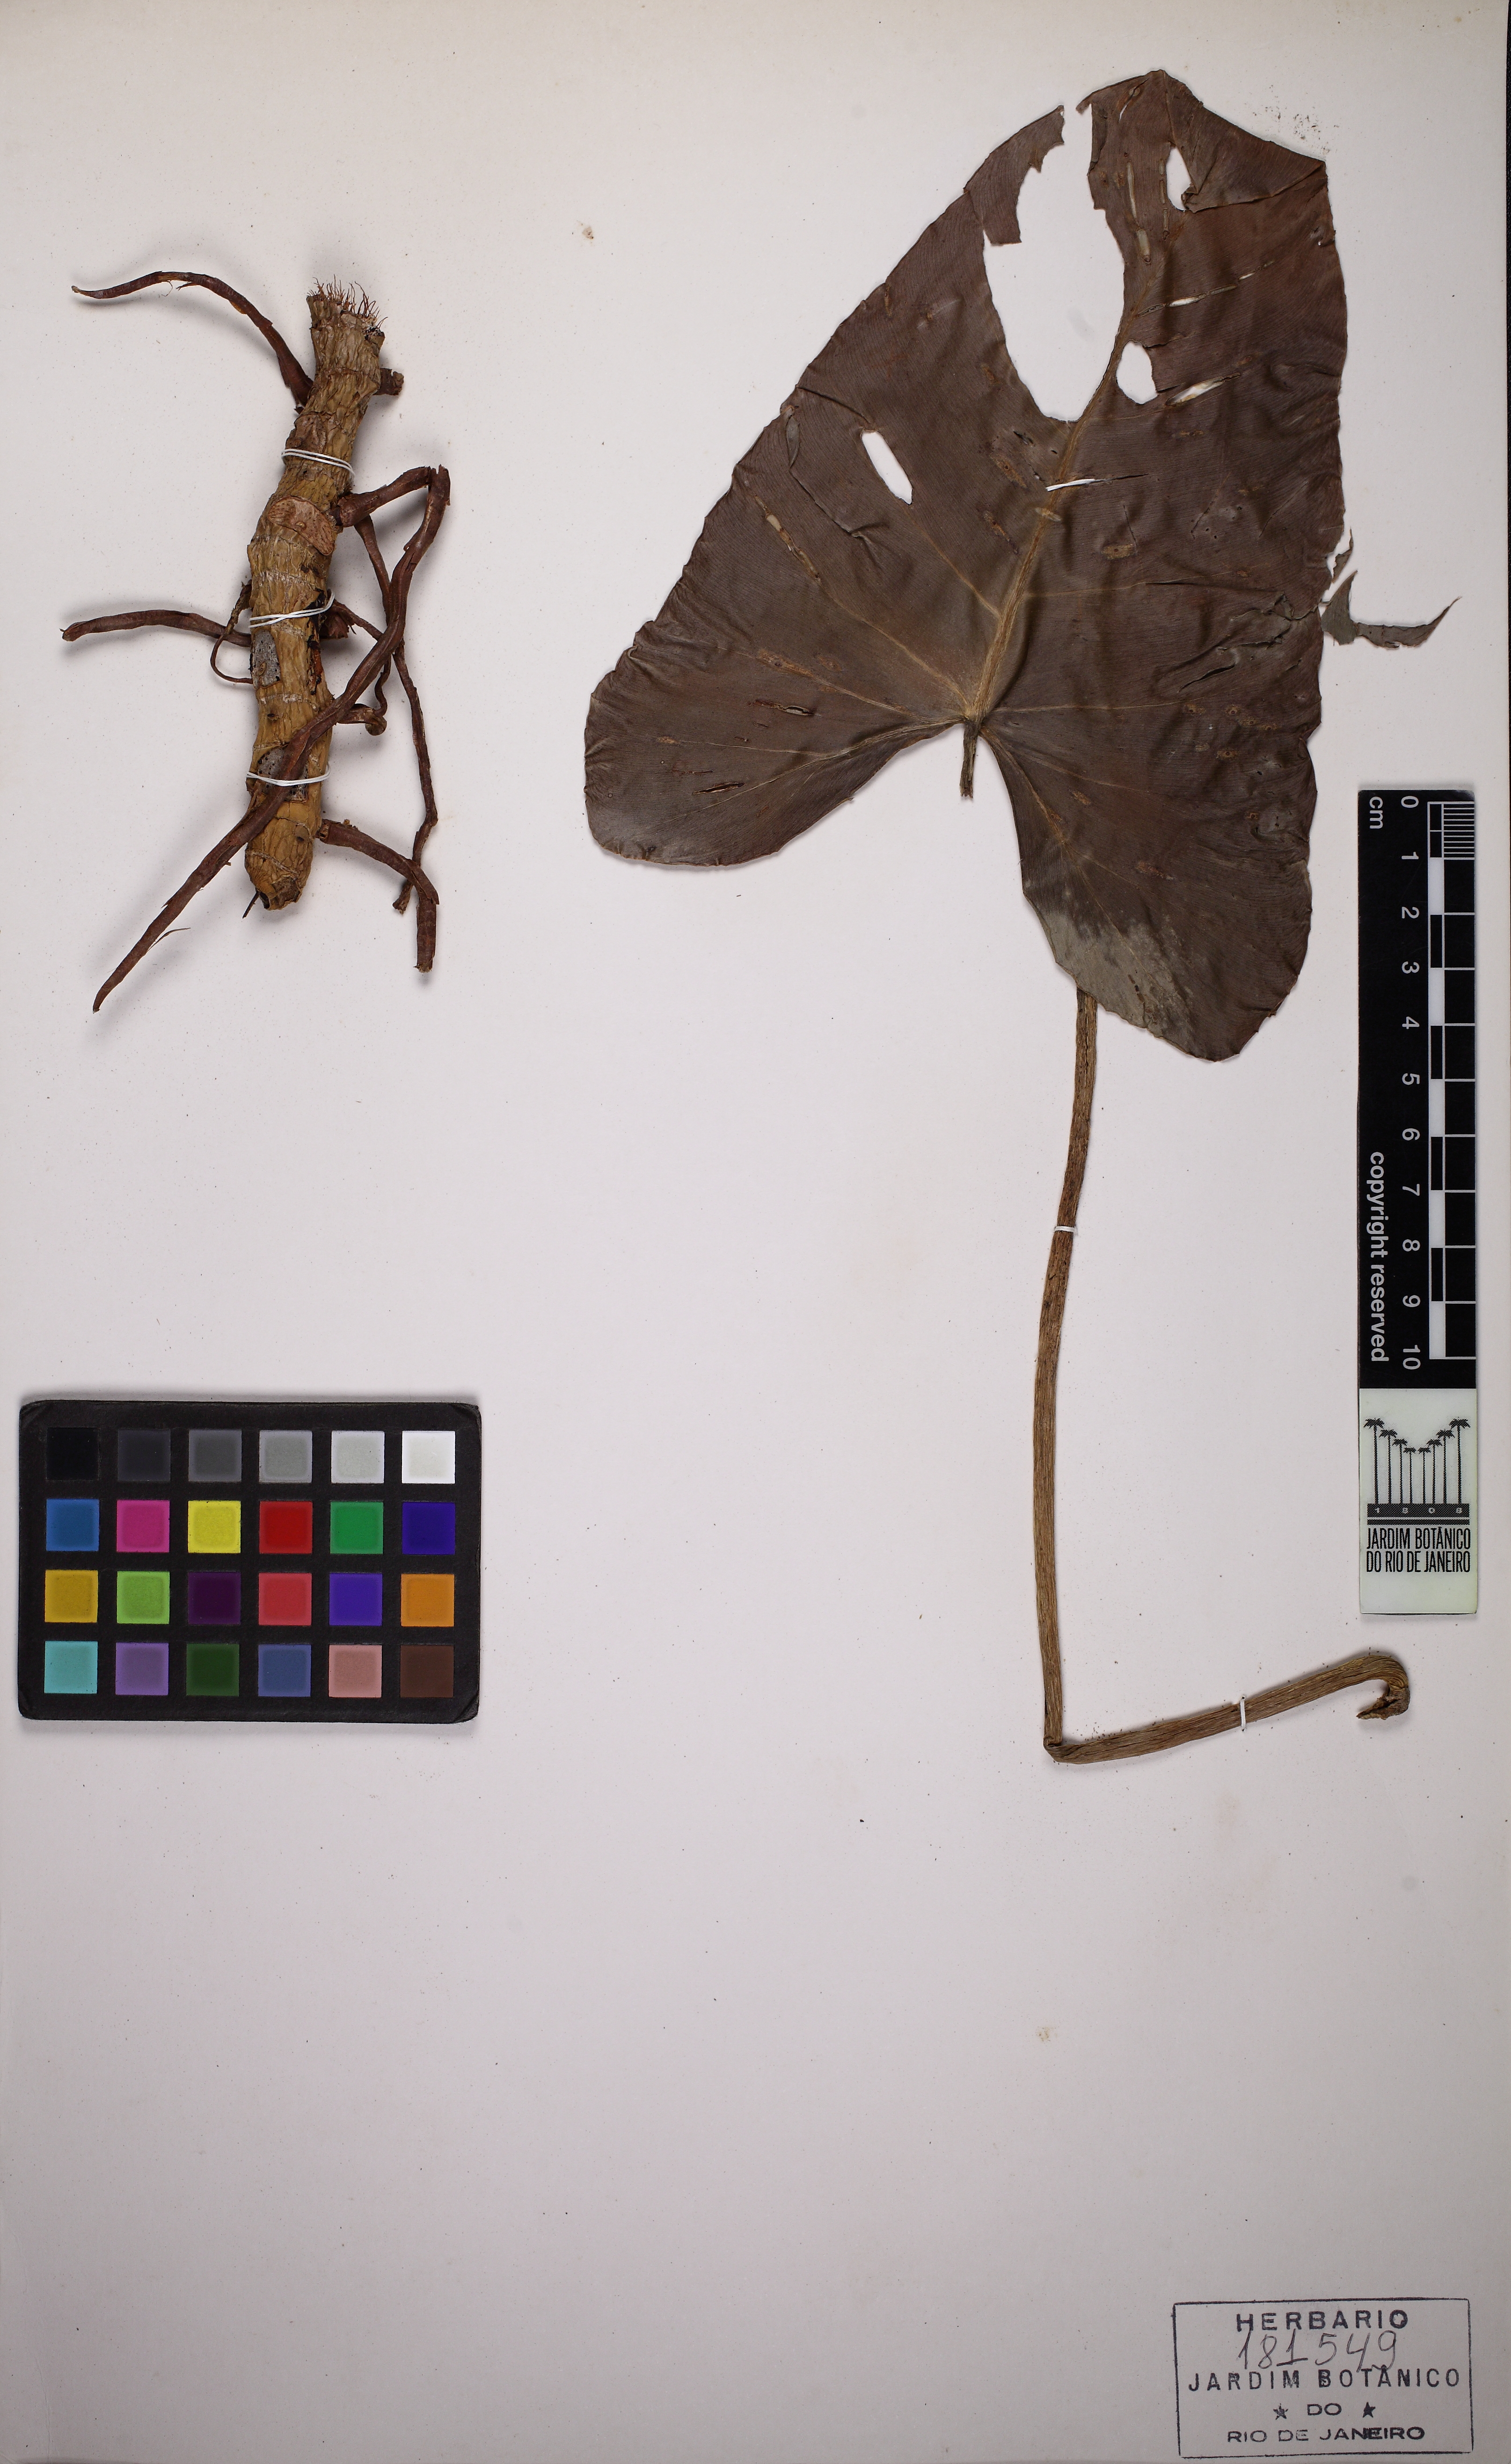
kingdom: Plantae
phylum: Tracheophyta
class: Liliopsida
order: Alismatales
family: Araceae
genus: Philodendron
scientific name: Philodendron quinquenervium
